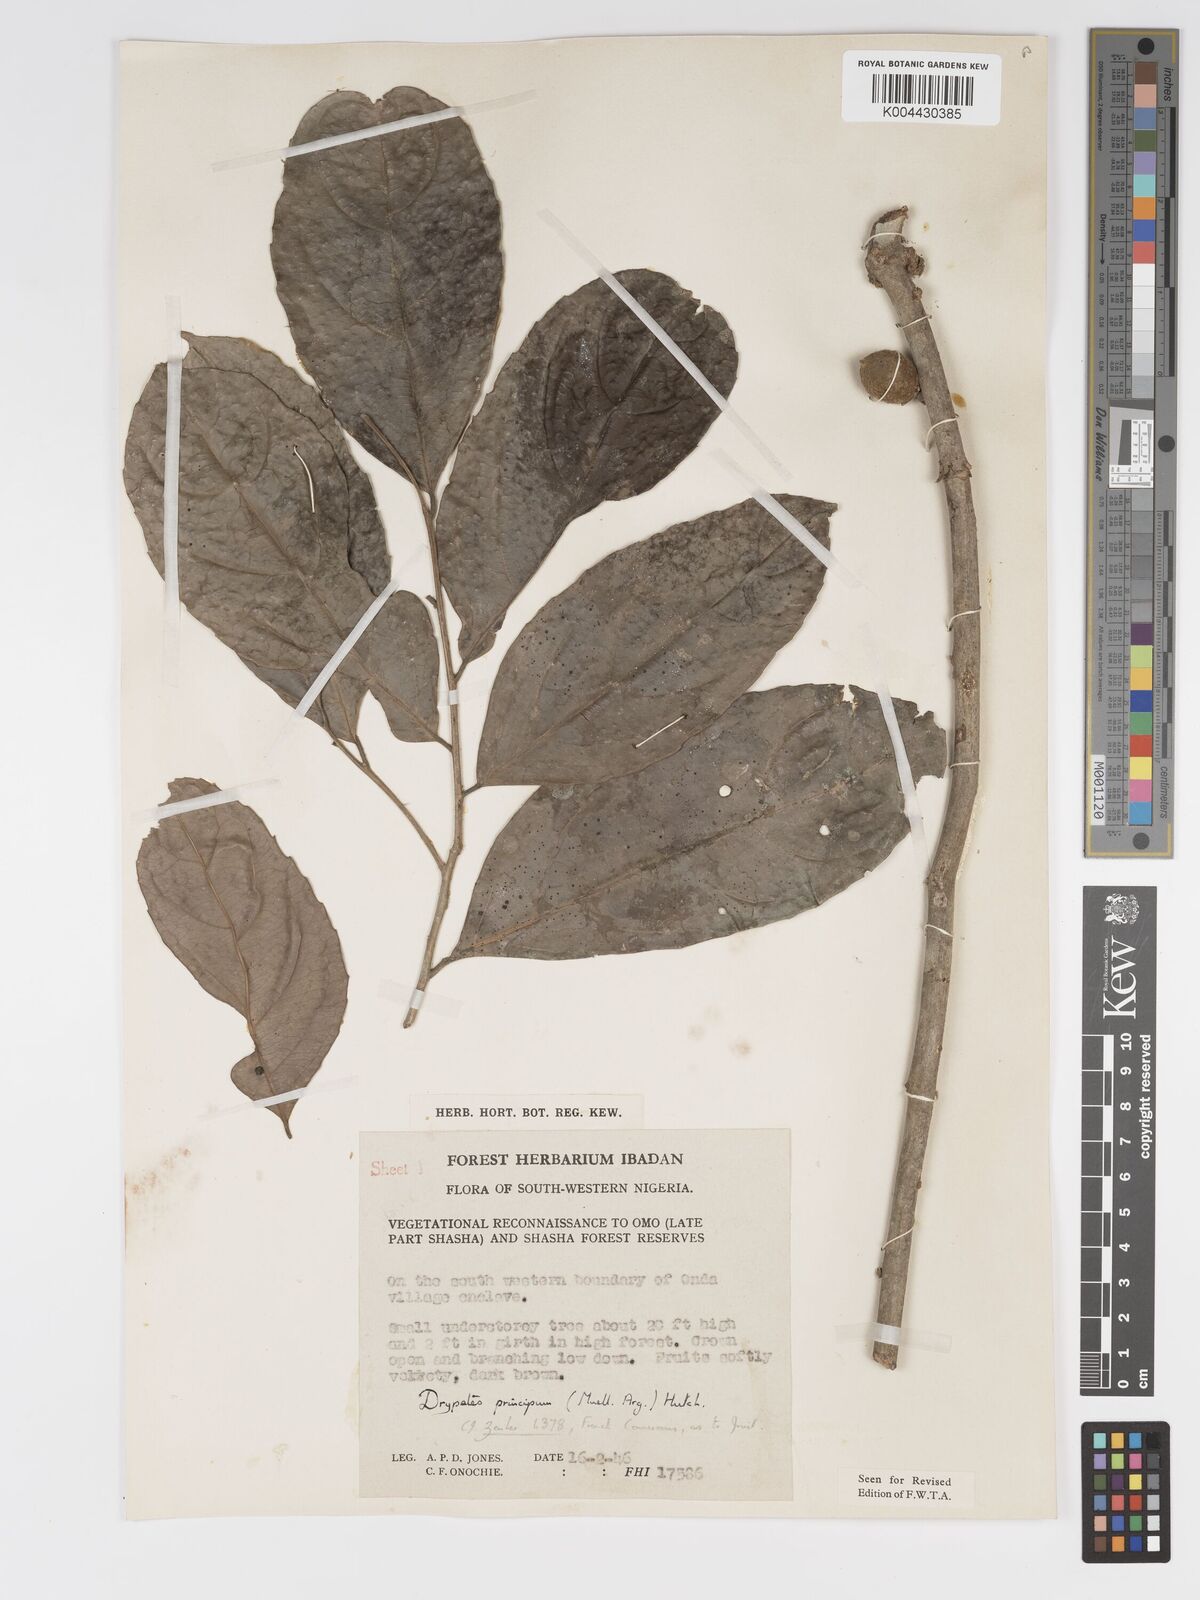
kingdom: Plantae
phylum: Tracheophyta
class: Magnoliopsida
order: Malpighiales
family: Putranjivaceae
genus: Drypetes
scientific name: Drypetes principum
